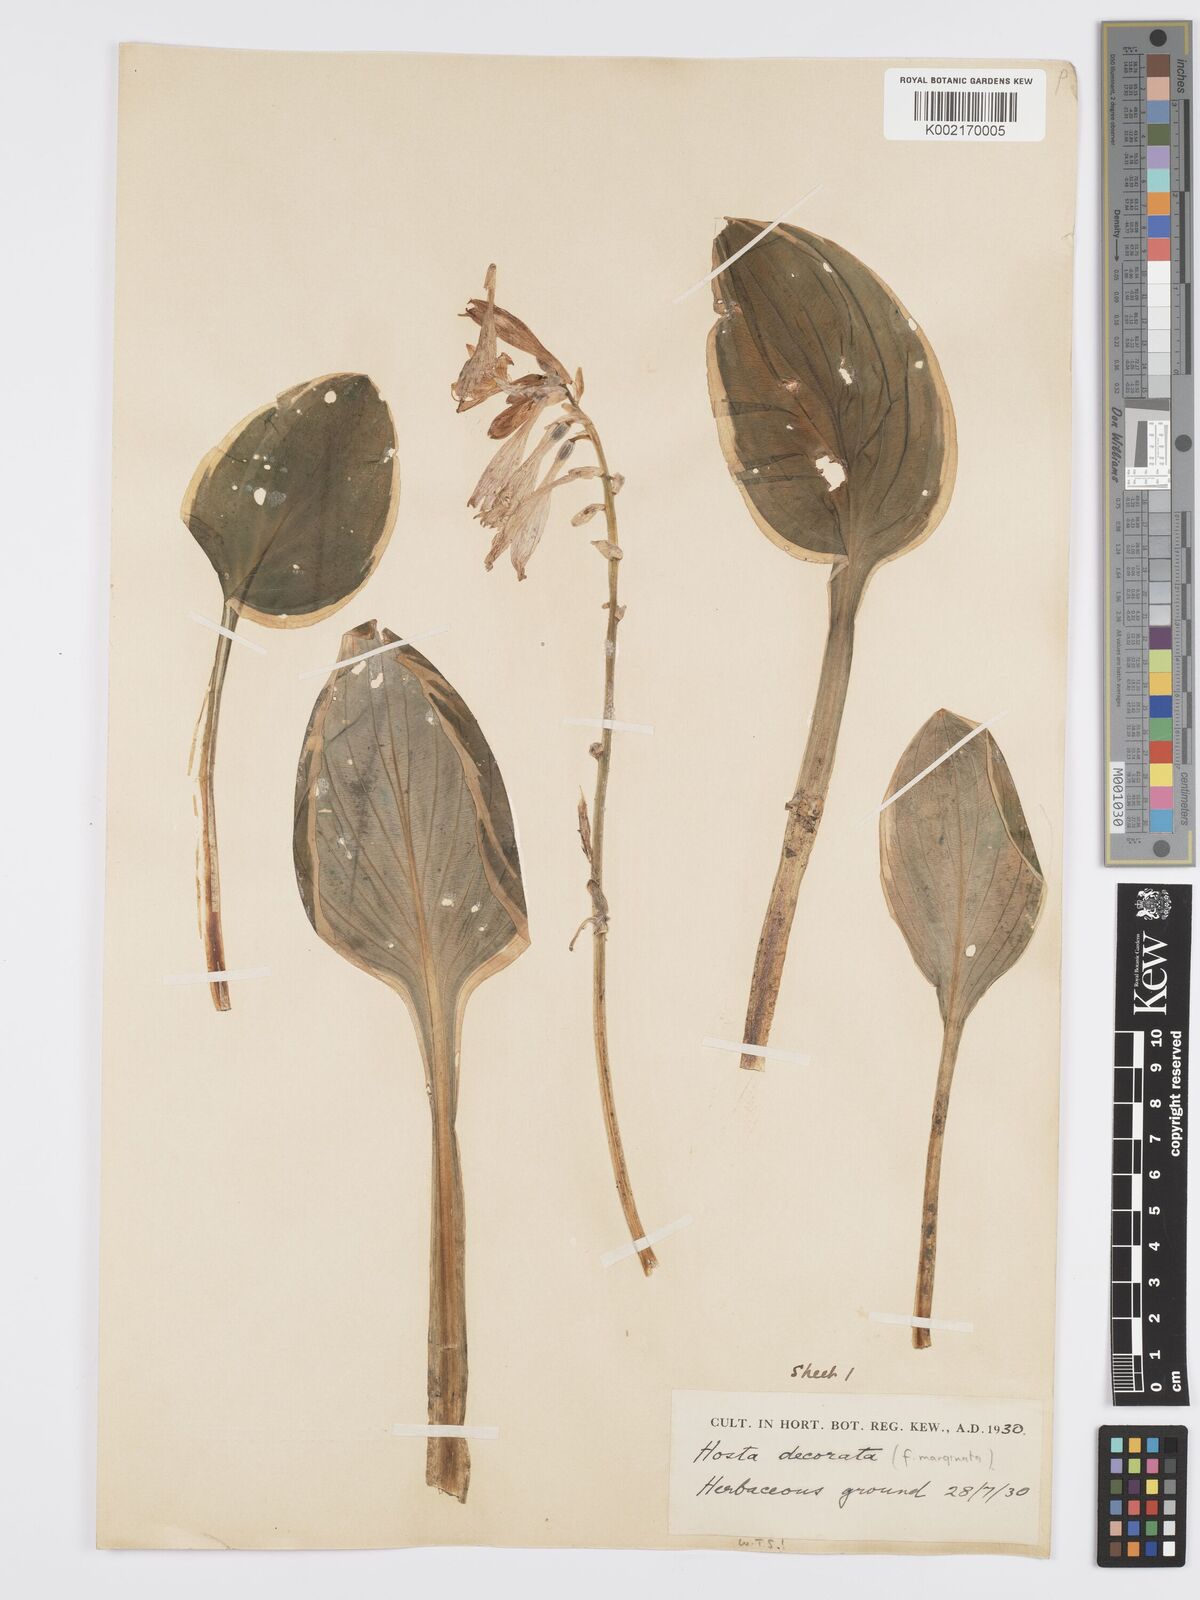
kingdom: Plantae
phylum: Tracheophyta
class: Liliopsida
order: Asparagales
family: Asparagaceae
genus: Hosta
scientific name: Hosta sieboldii
